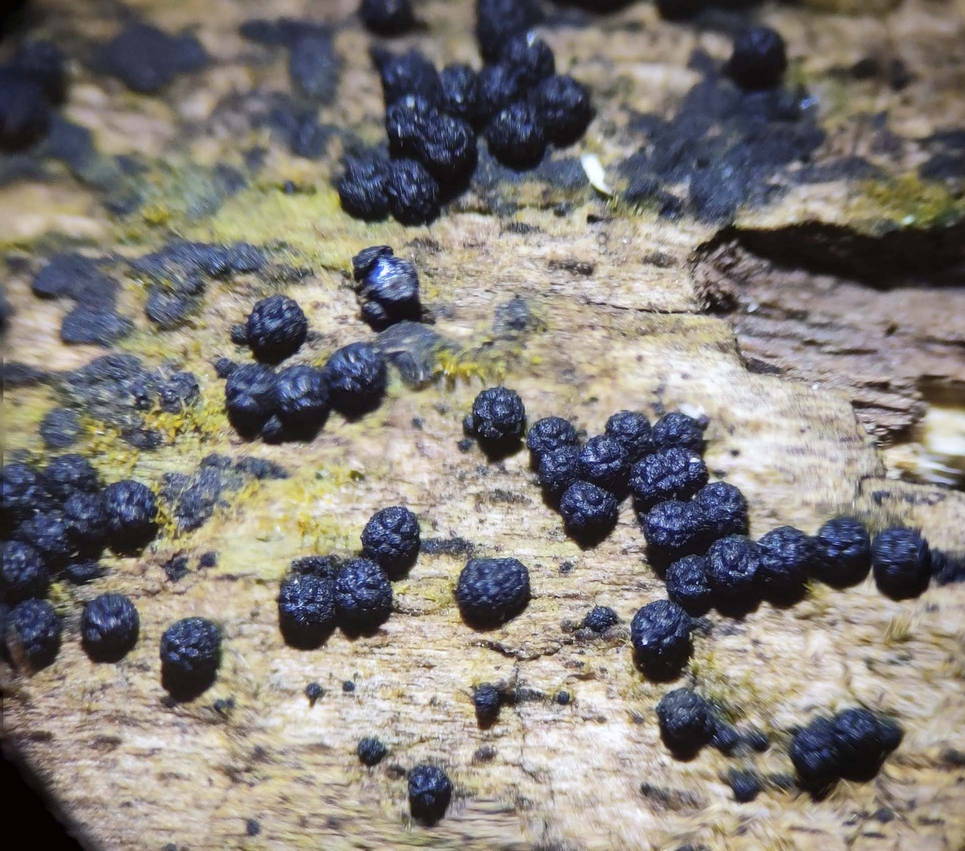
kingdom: Fungi
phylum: Ascomycota
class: Sordariomycetes
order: Coronophorales
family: Bertiaceae
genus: Bertia
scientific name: Bertia moriformis
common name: almindelig morbærkerne
